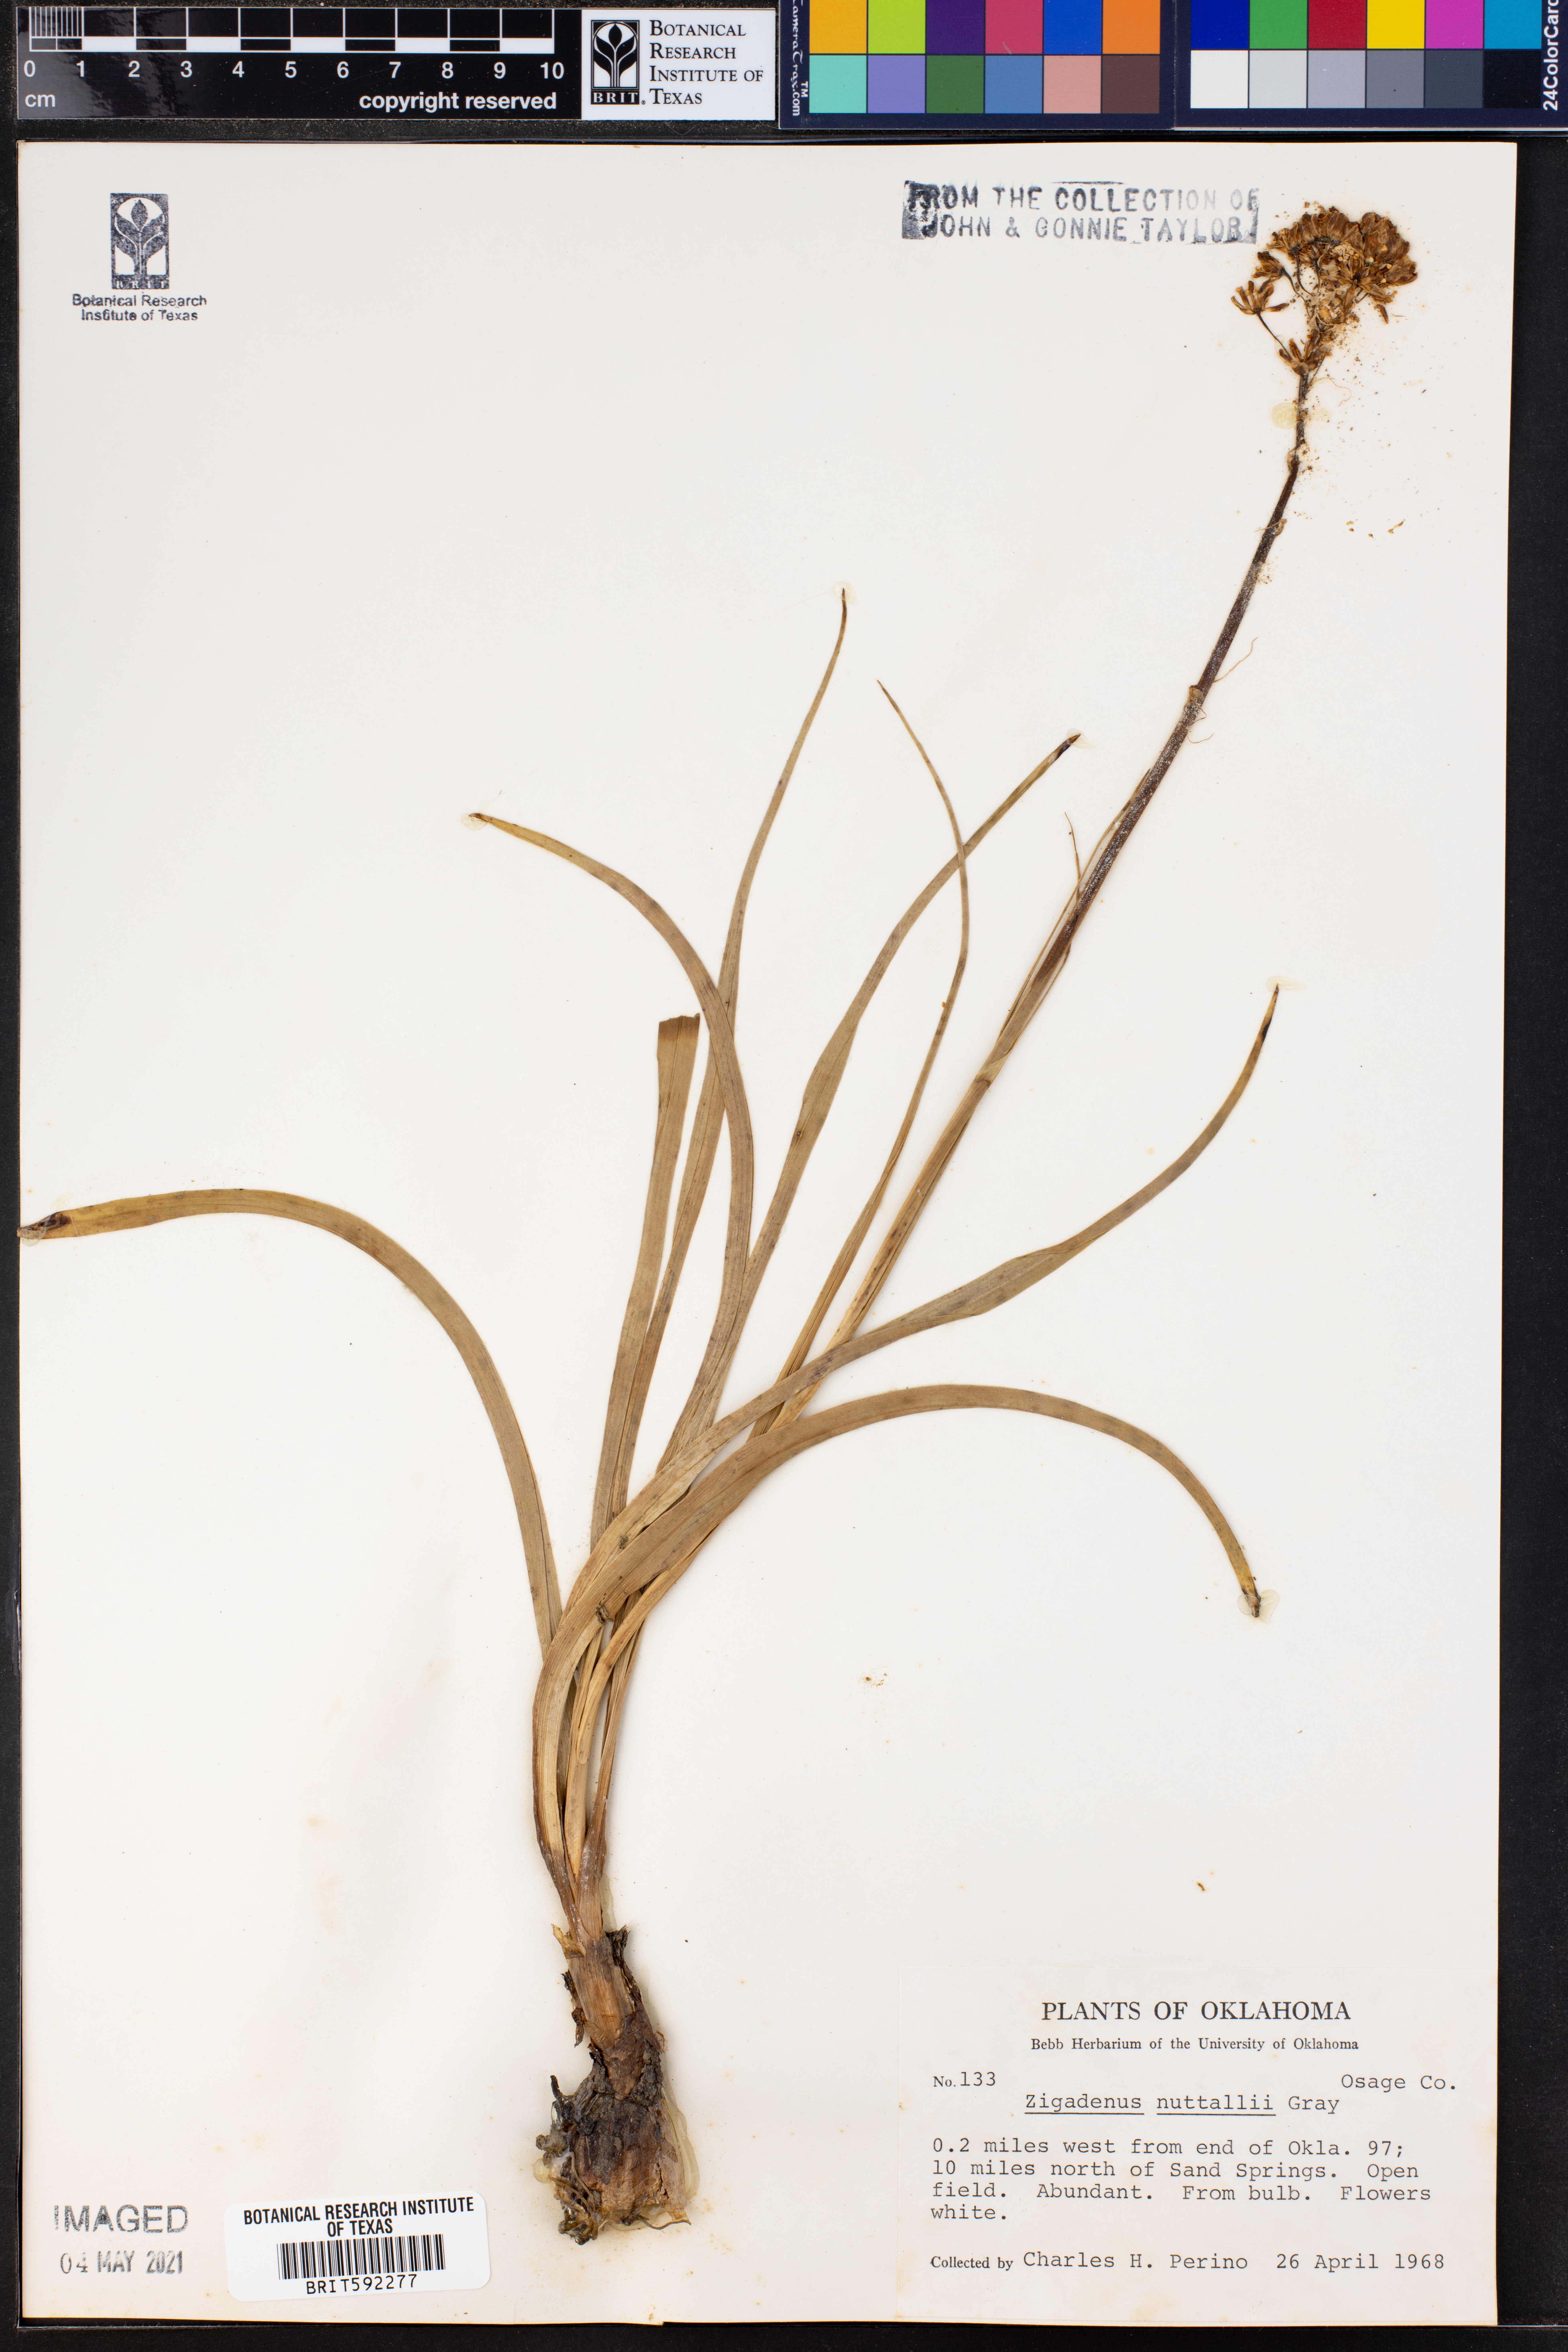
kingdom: Plantae
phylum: Tracheophyta
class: Liliopsida
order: Liliales
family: Melanthiaceae
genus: Toxicoscordion
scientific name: Toxicoscordion nuttallii
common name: Poison sego
